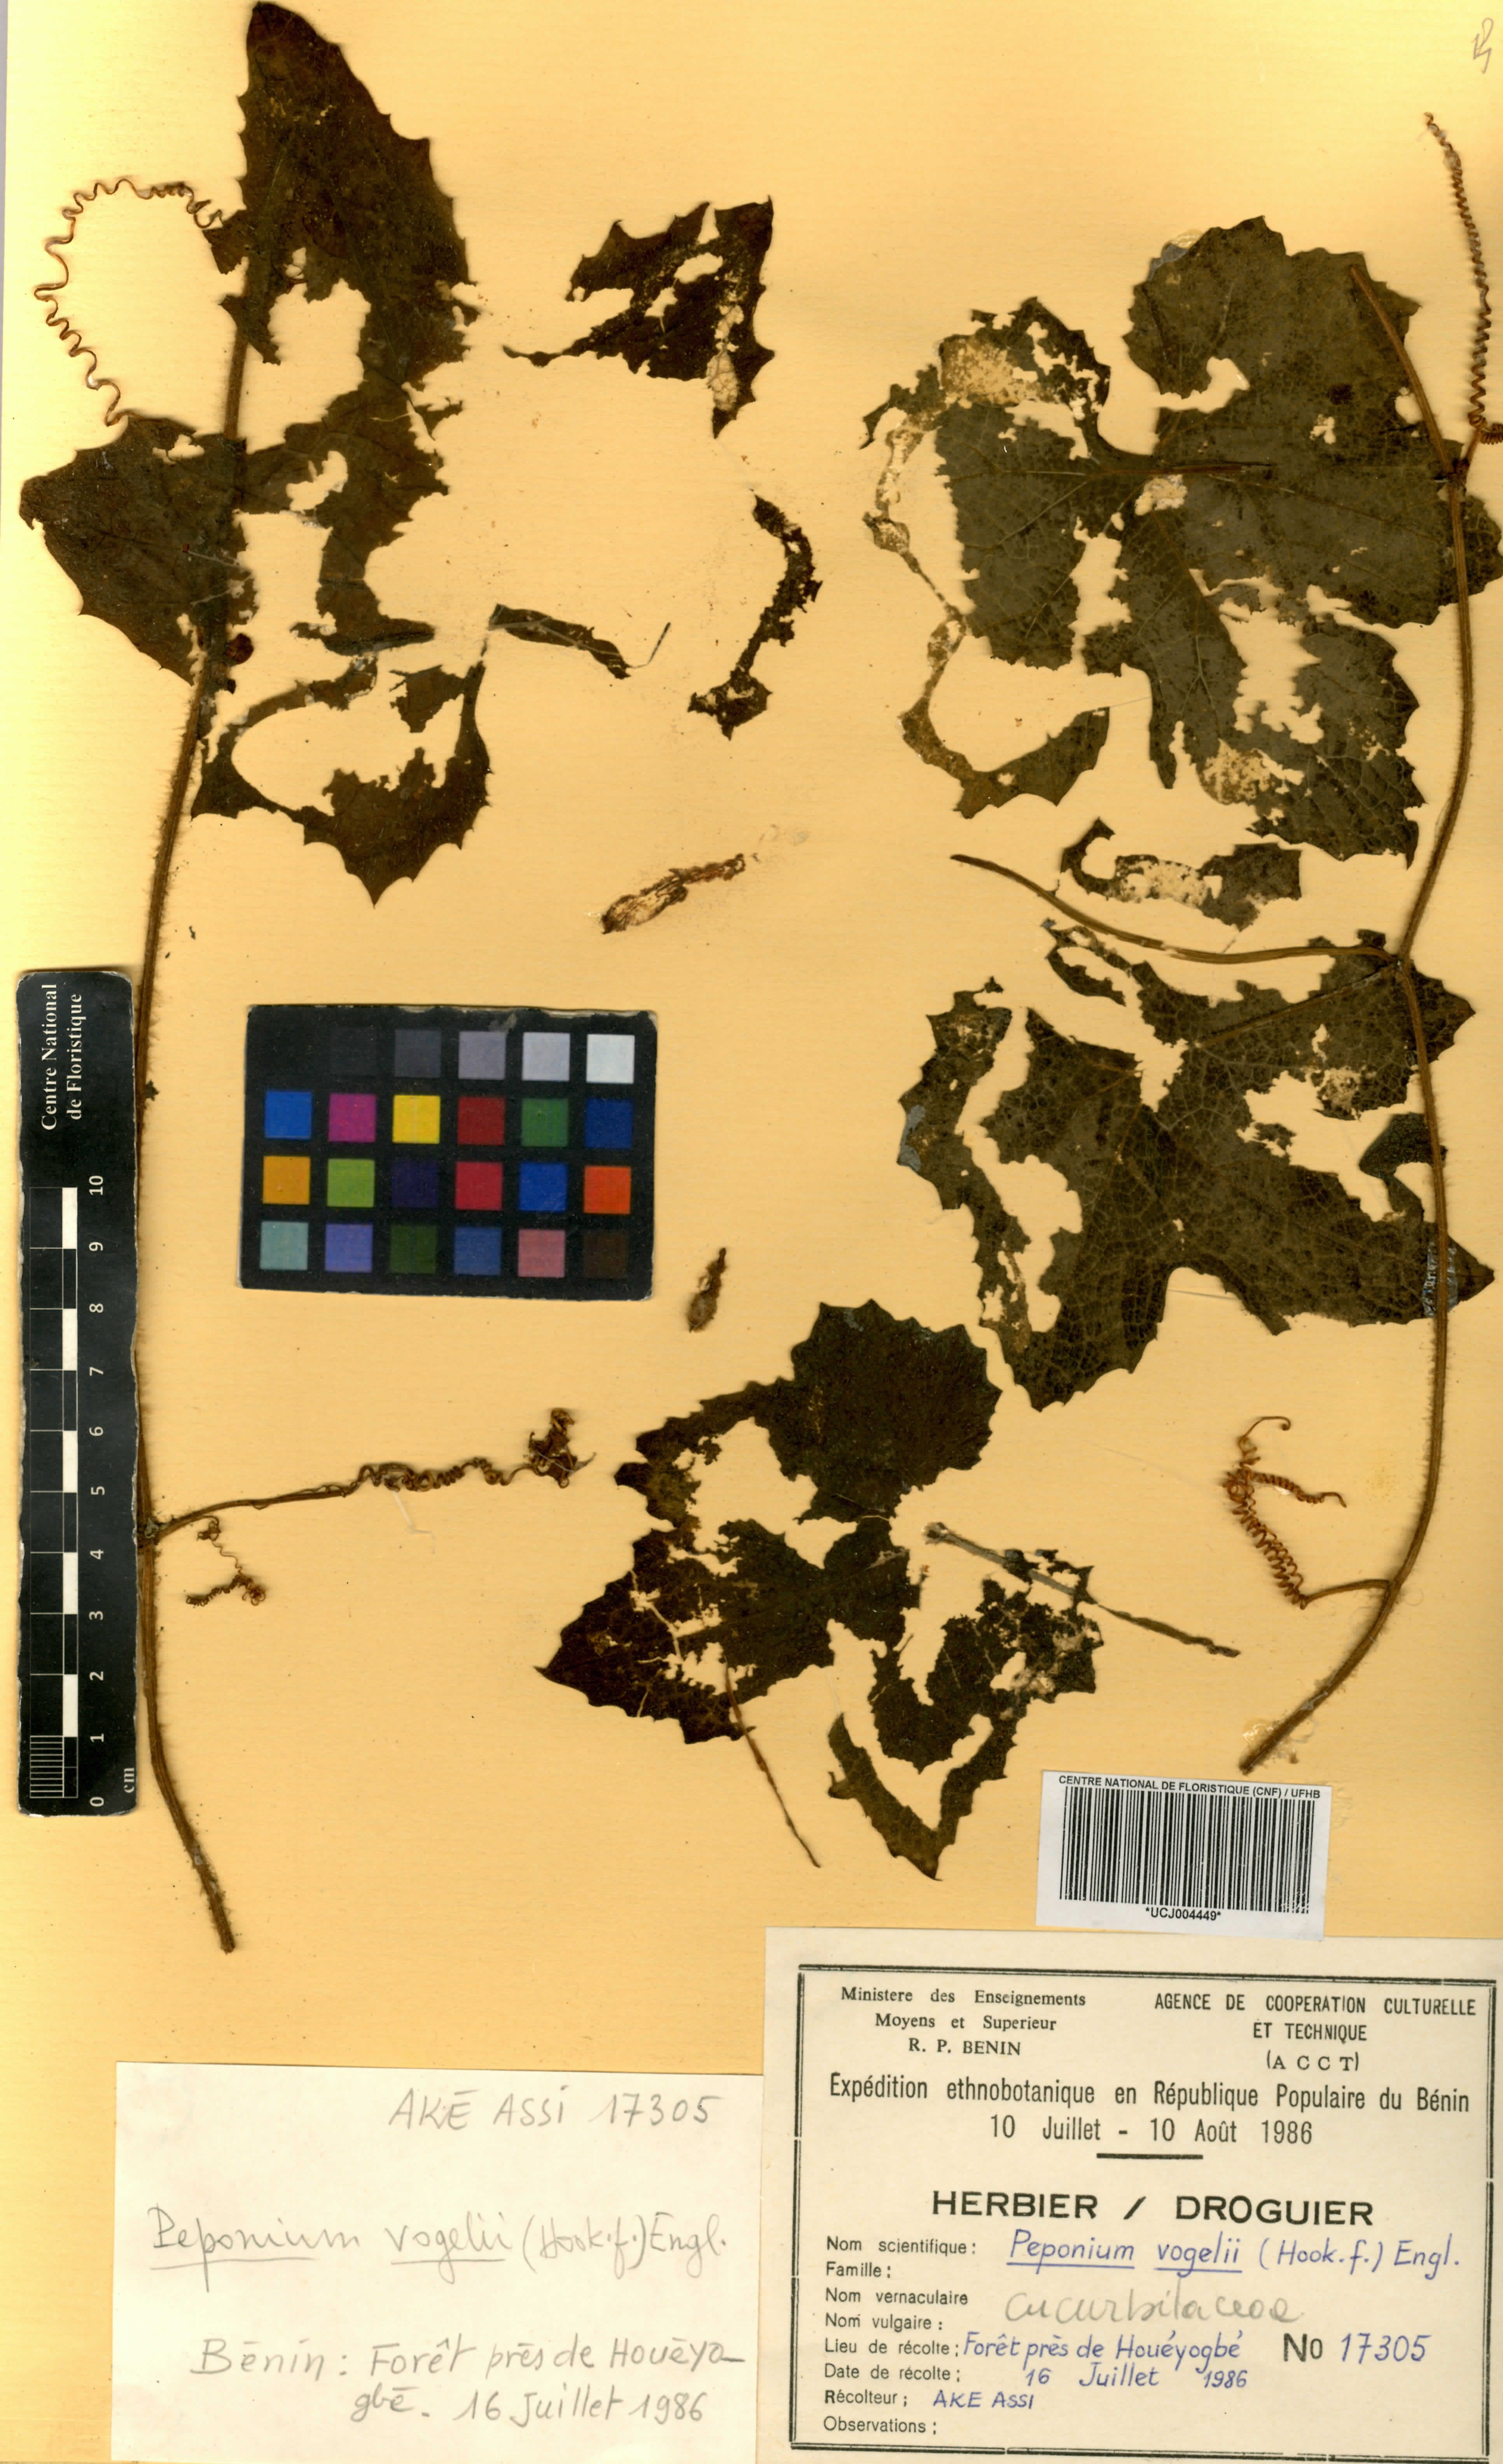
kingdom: Plantae
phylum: Tracheophyta
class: Magnoliopsida
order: Cucurbitales
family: Cucurbitaceae
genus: Peponium
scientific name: Peponium vogelii
